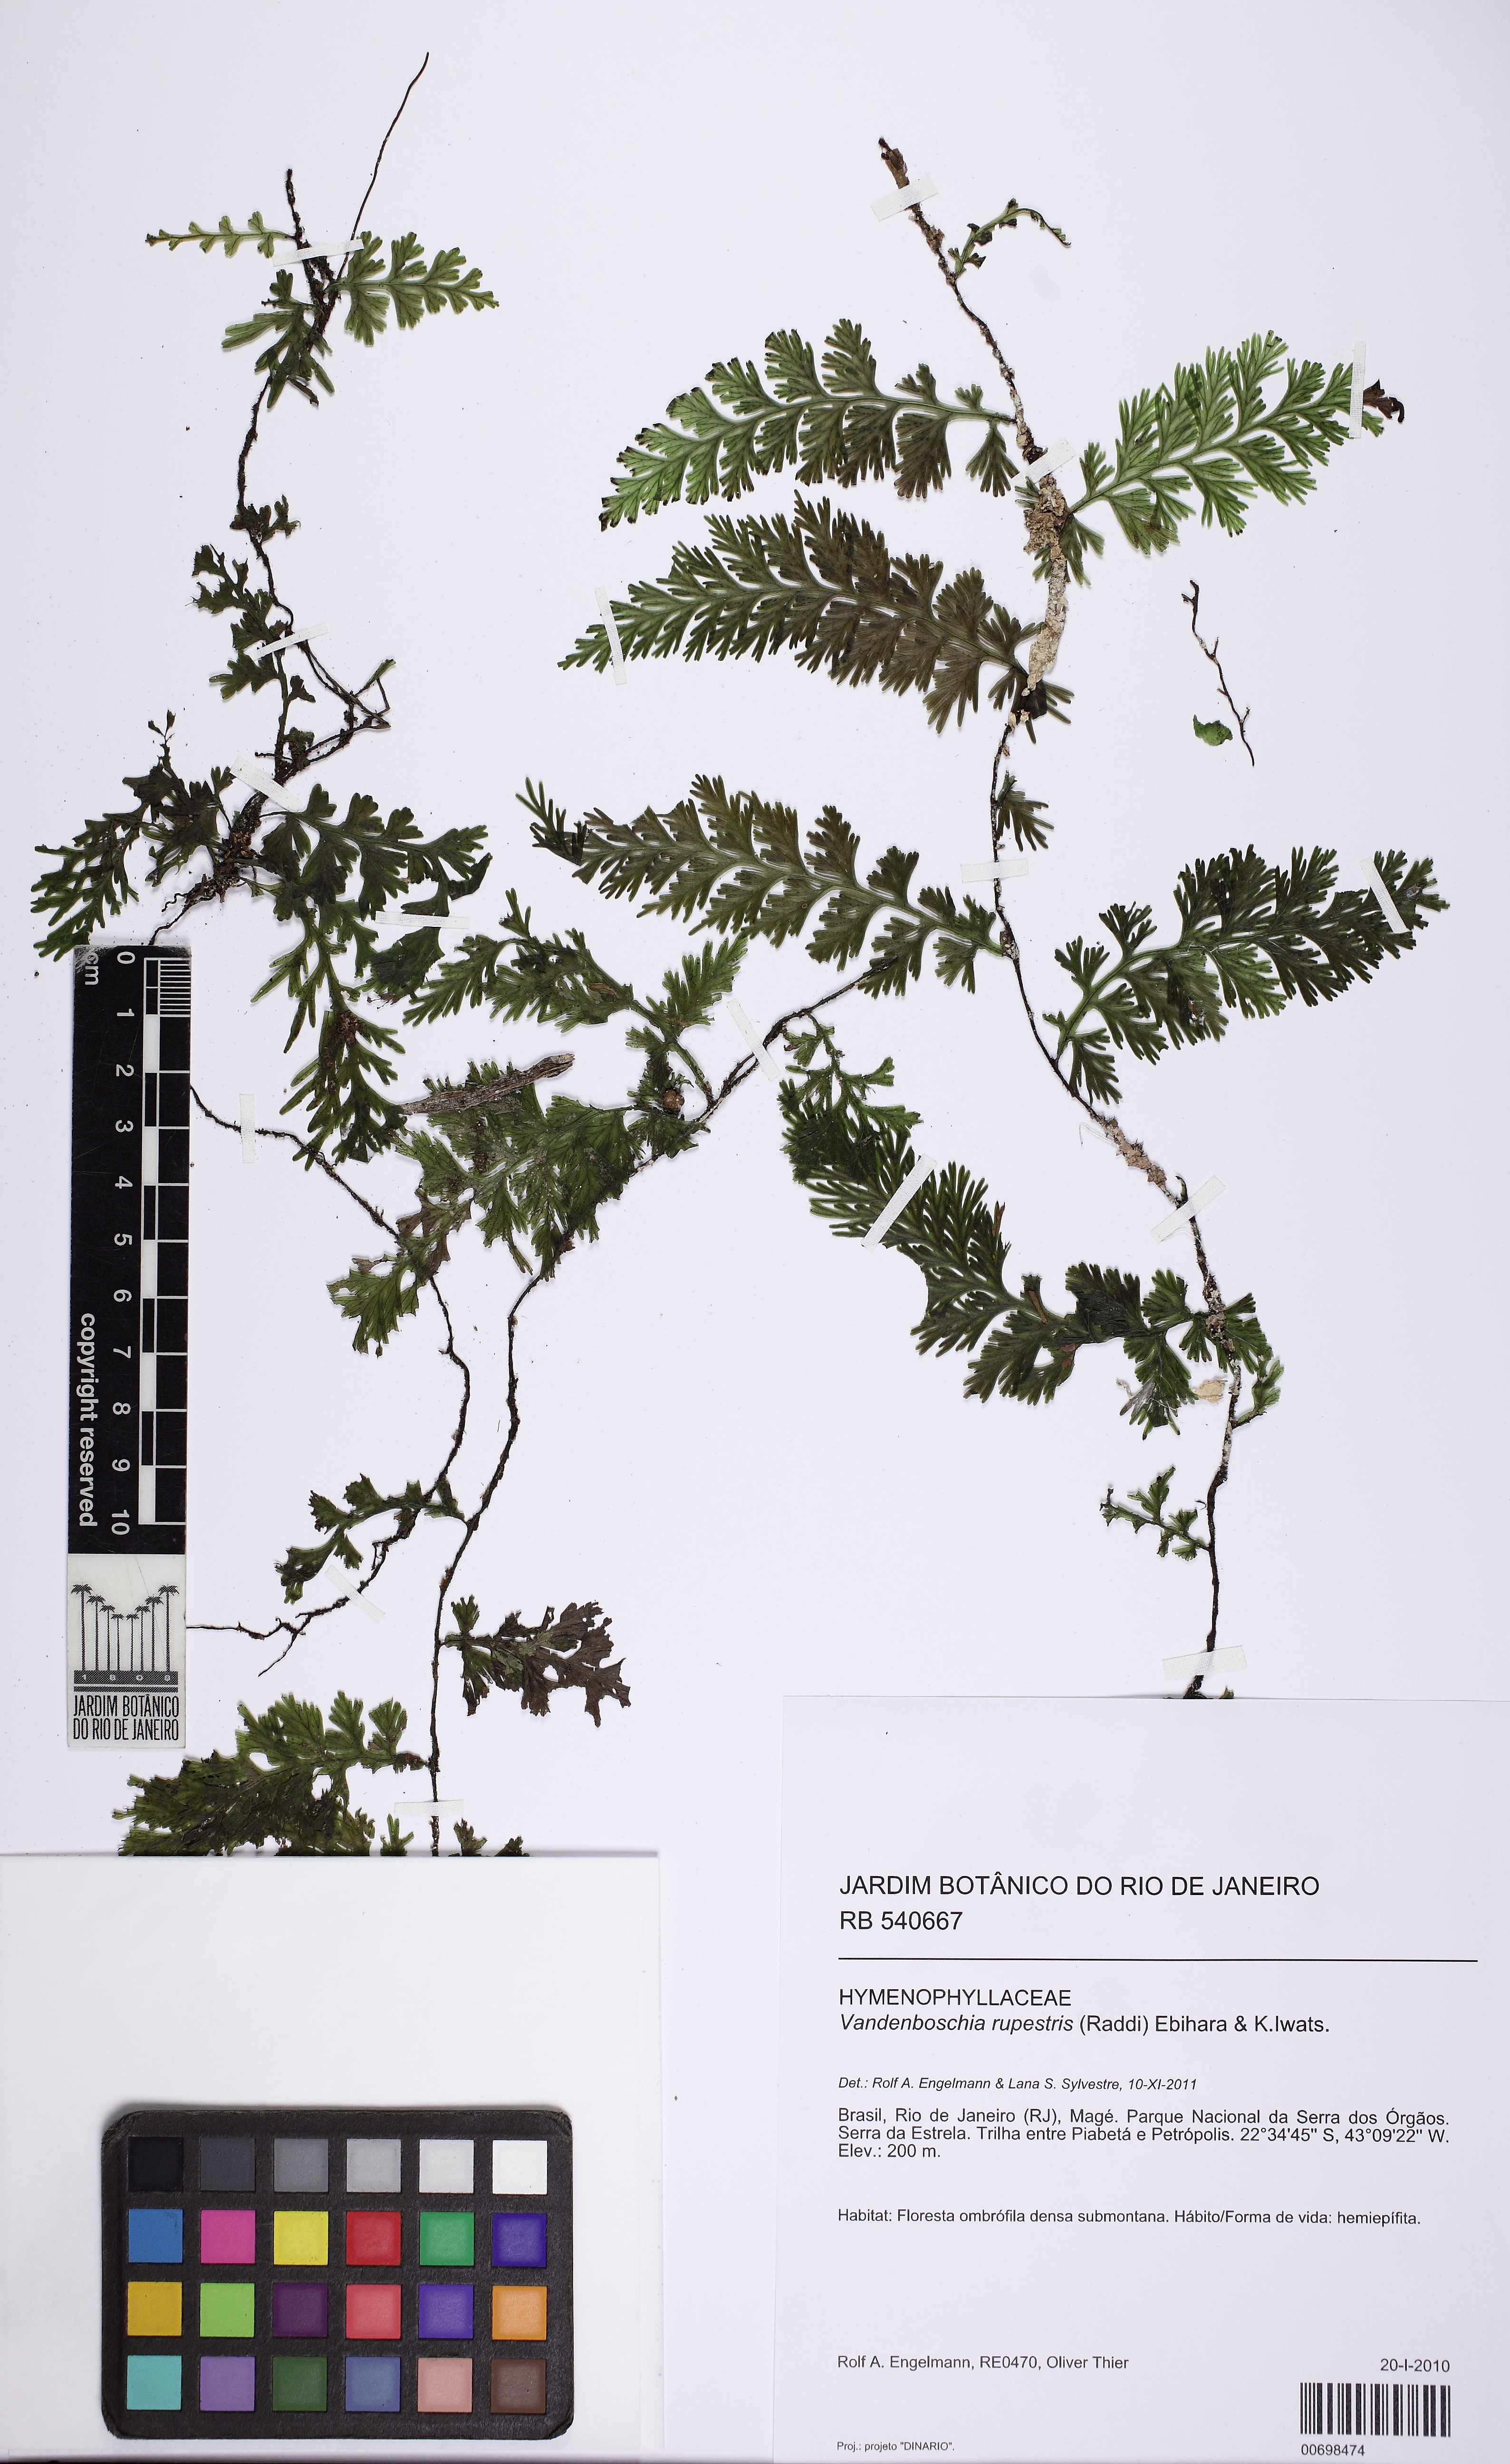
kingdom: Plantae
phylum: Tracheophyta
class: Polypodiopsida
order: Hymenophyllales
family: Hymenophyllaceae
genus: Vandenboschia
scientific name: Vandenboschia rupestris
